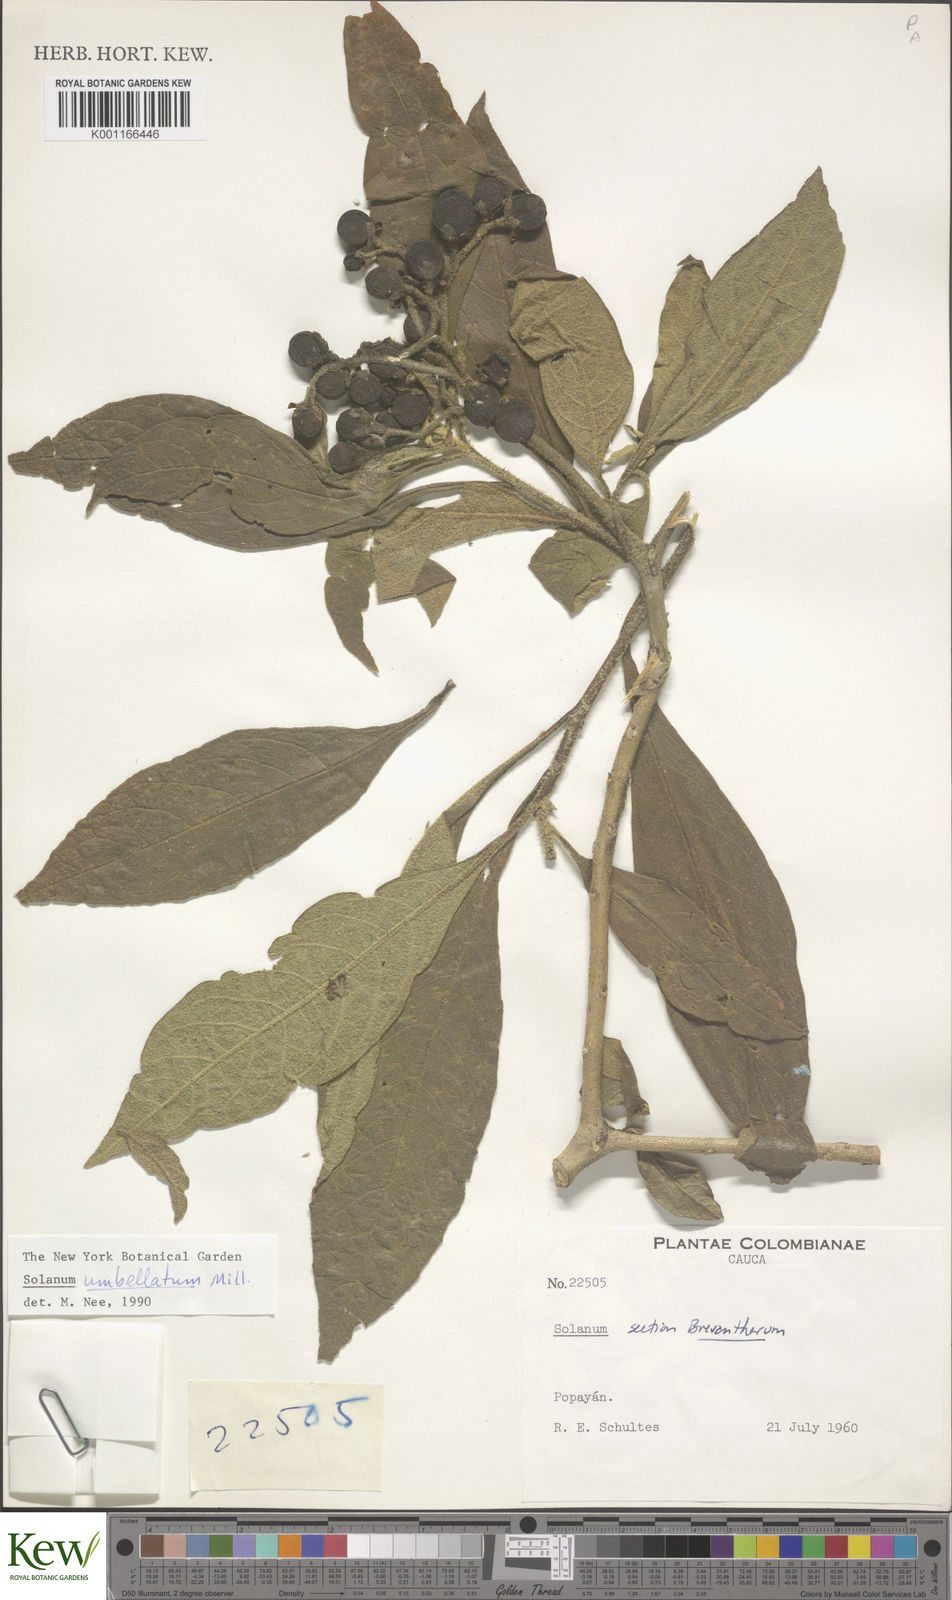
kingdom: Plantae
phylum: Tracheophyta
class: Magnoliopsida
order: Solanales
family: Solanaceae
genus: Solanum
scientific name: Solanum umbellatum
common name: Nightshade
